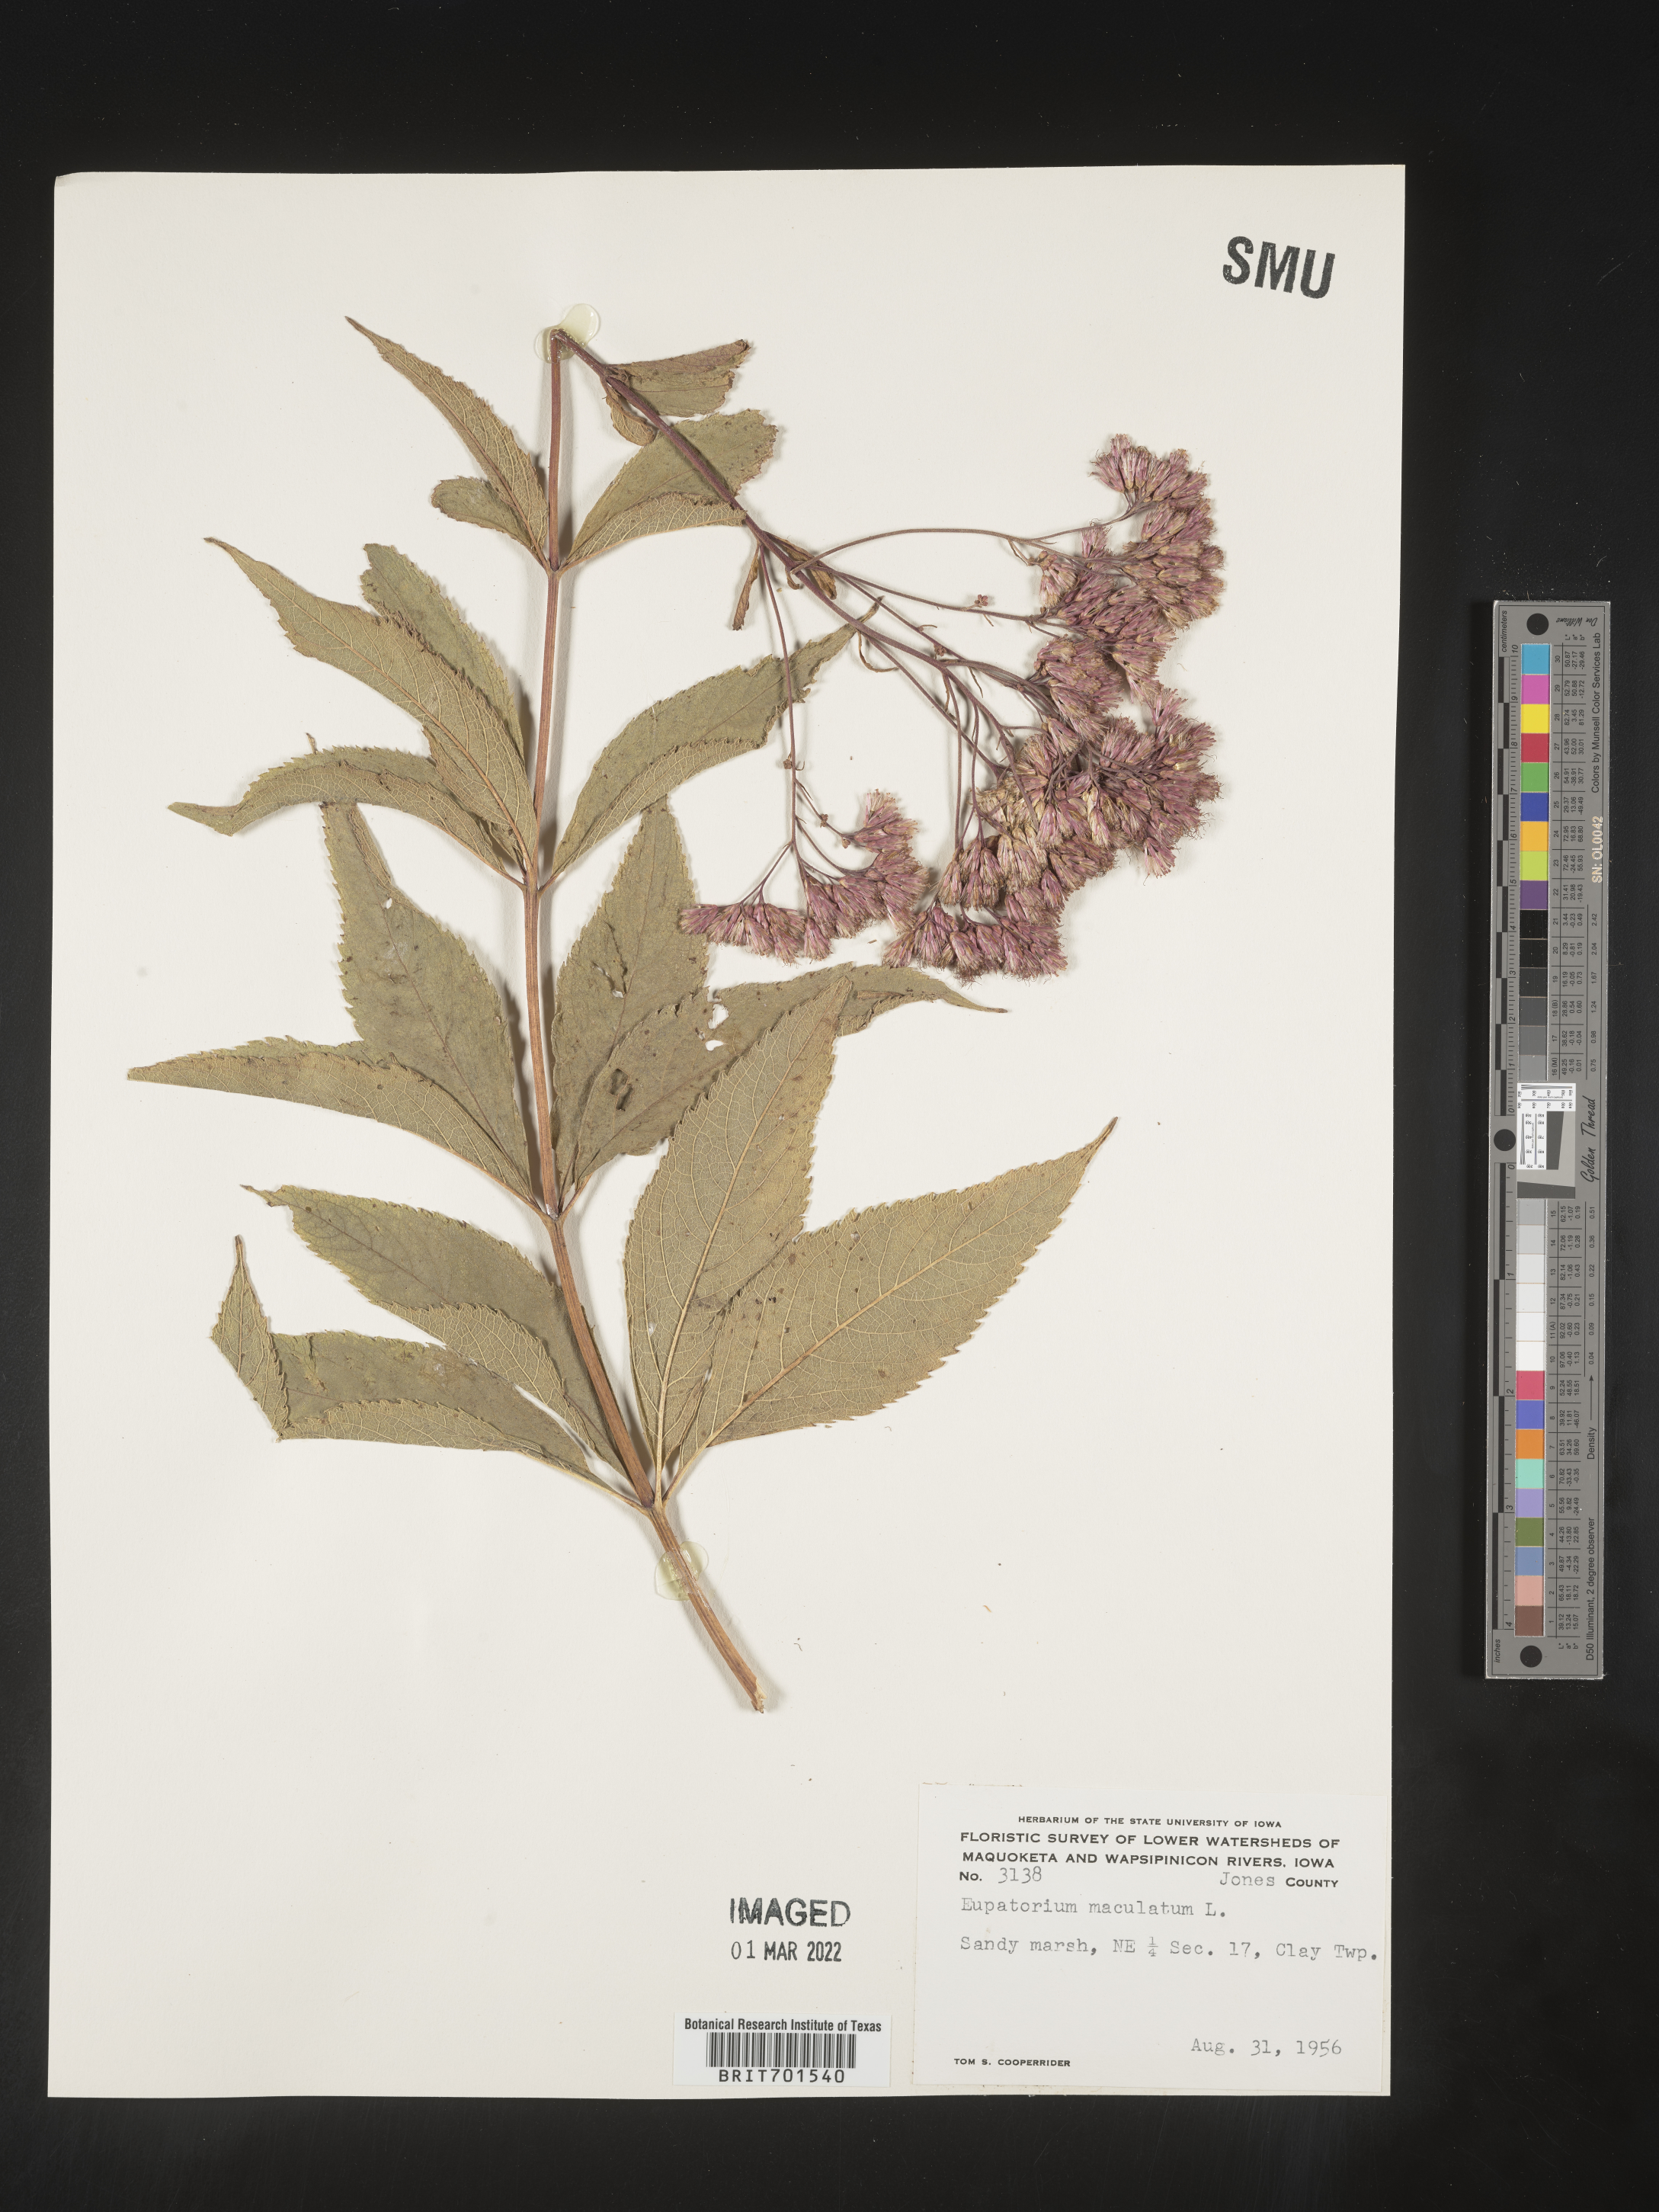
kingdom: Plantae
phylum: Tracheophyta
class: Magnoliopsida
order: Asterales
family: Asteraceae
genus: Eutrochium
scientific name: Eutrochium maculatum
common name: Spotted joe pye weed
